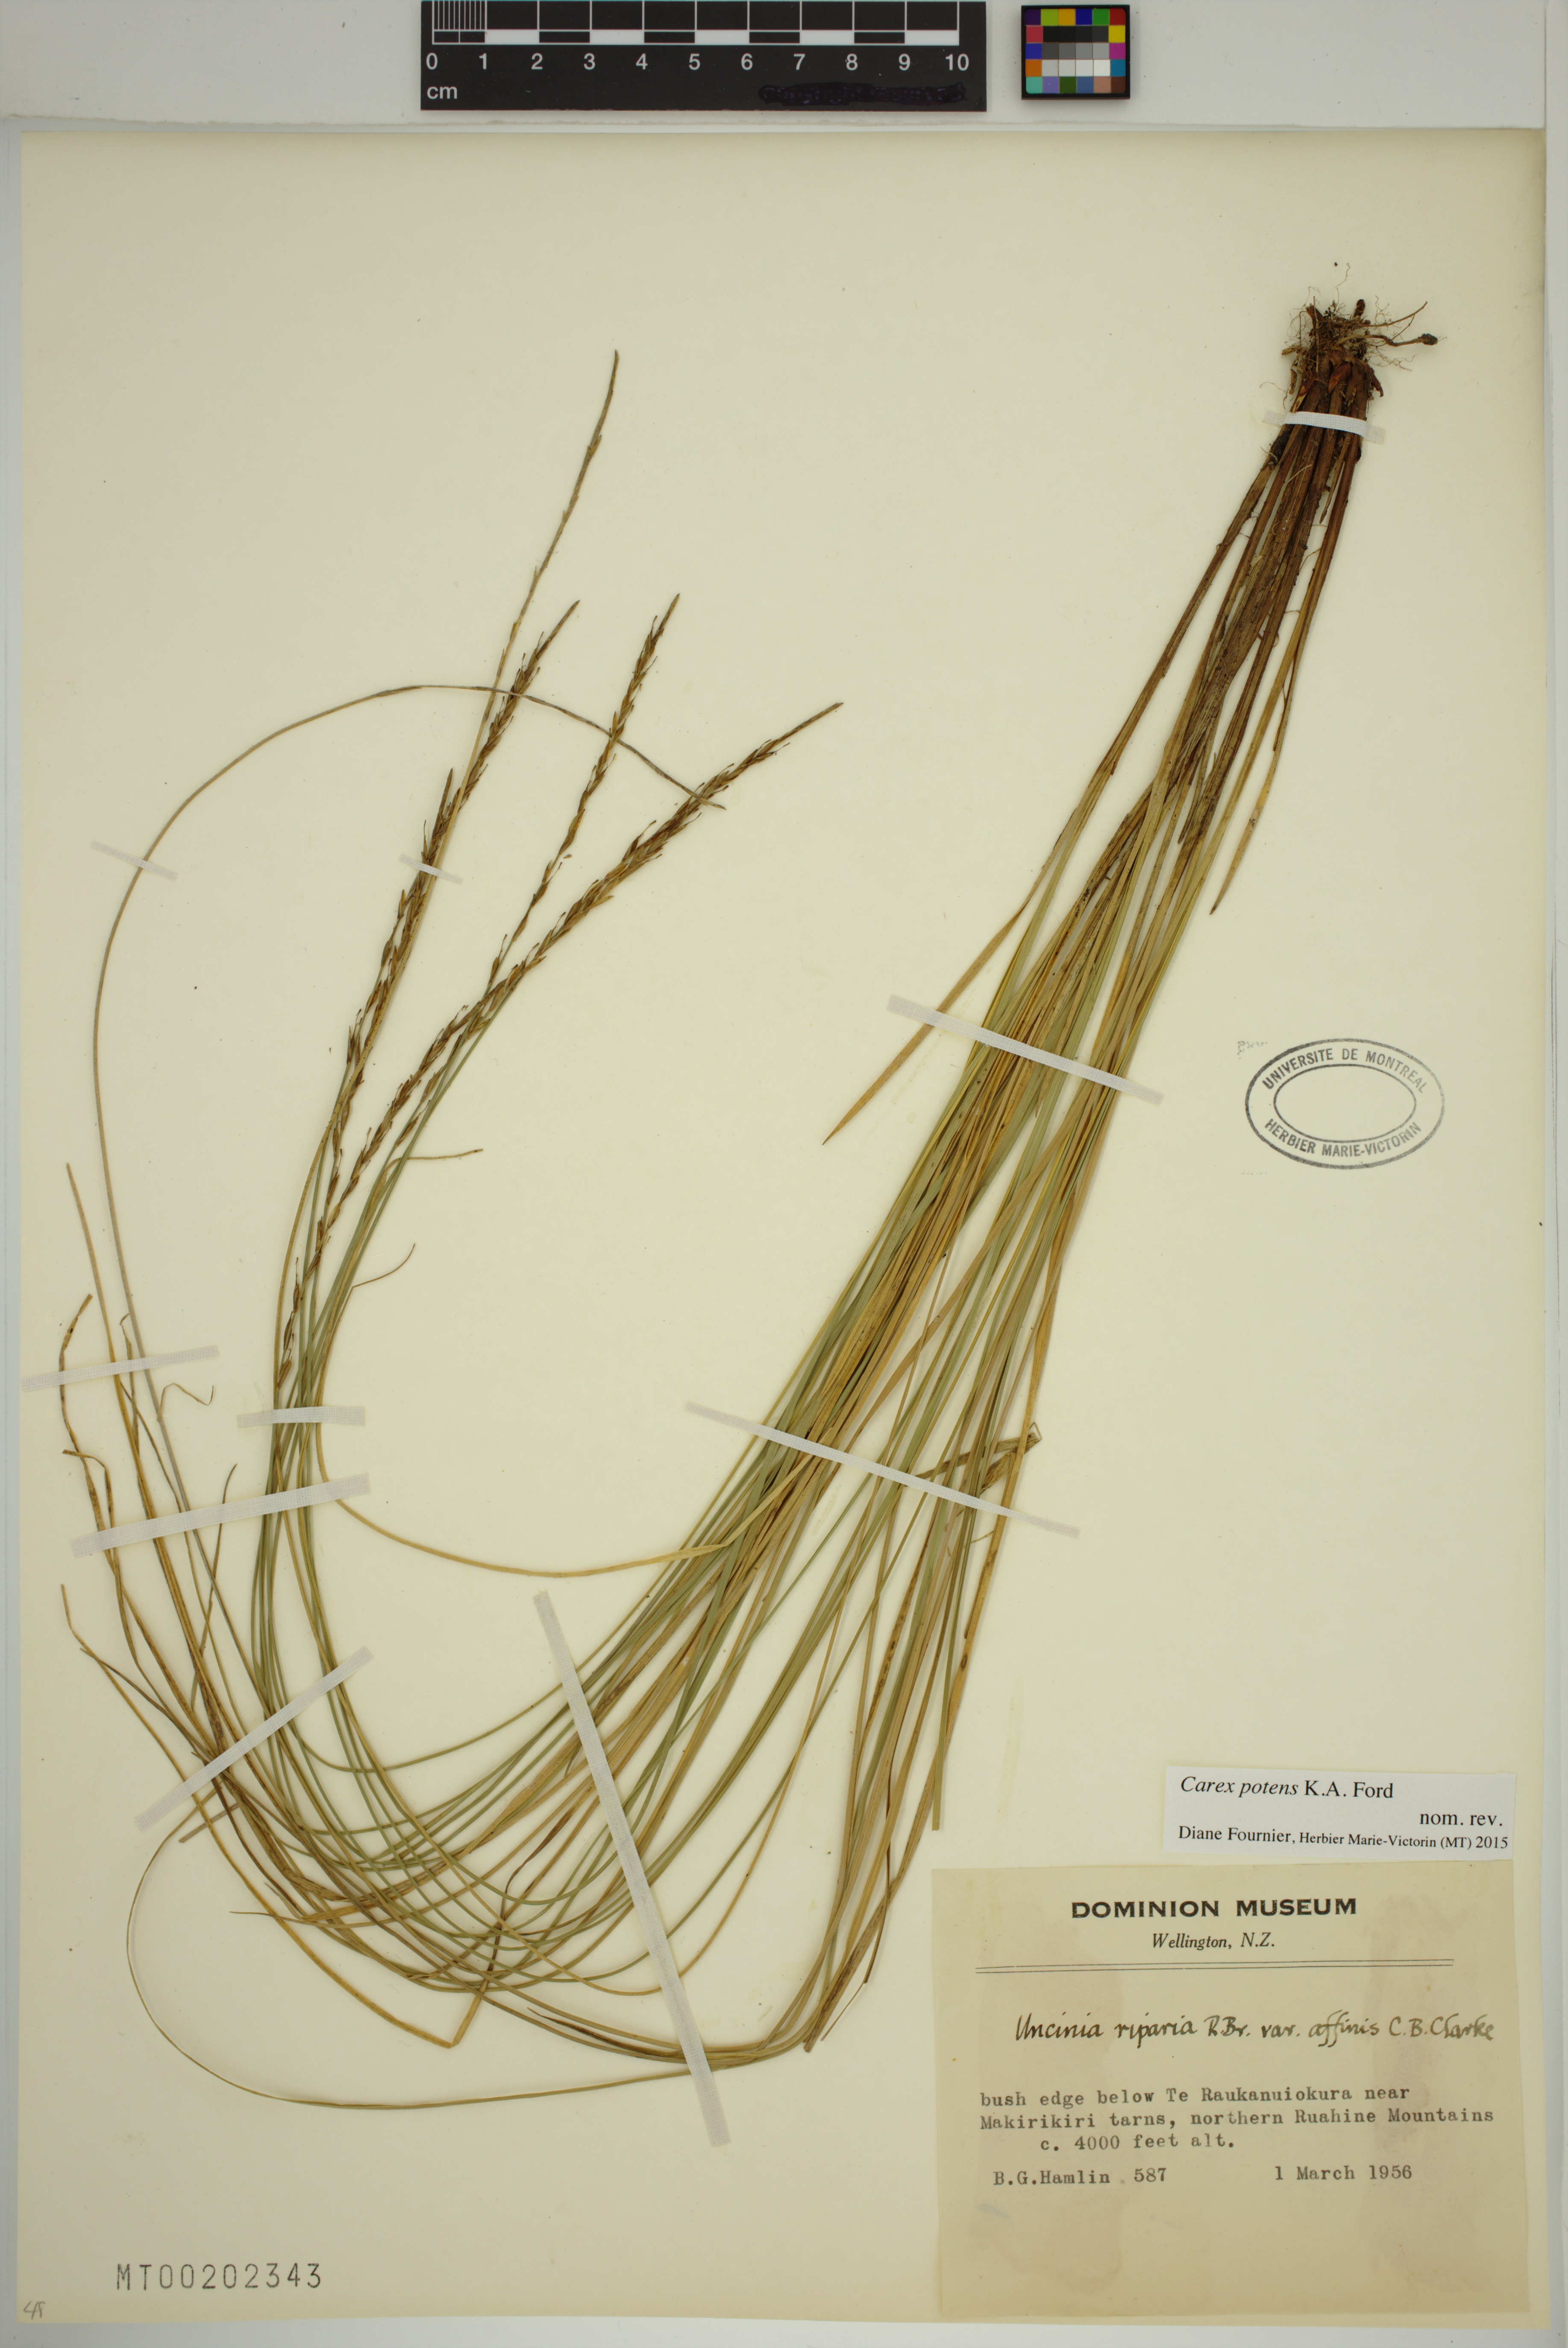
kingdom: Plantae
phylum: Tracheophyta
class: Liliopsida
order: Poales
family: Cyperaceae
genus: Carex
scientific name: Carex potens
